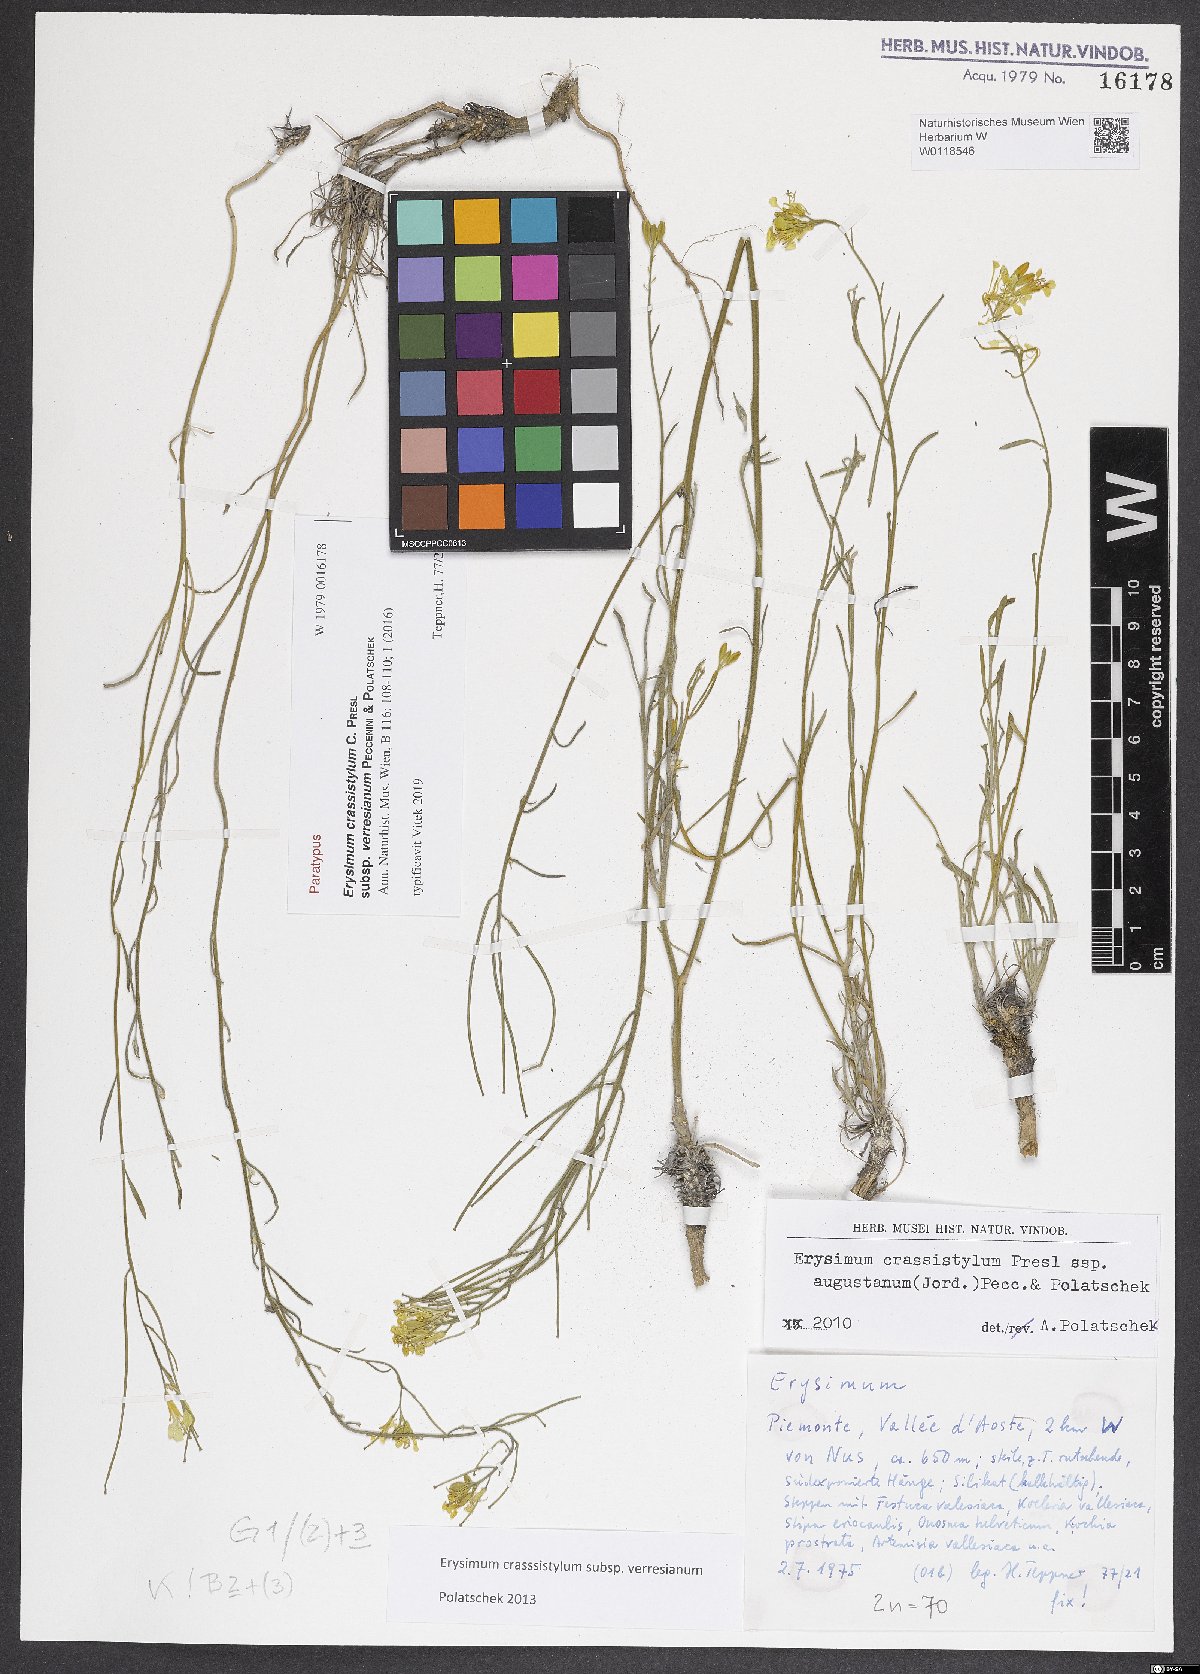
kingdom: Plantae
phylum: Tracheophyta
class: Magnoliopsida
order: Brassicales
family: Brassicaceae
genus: Erysimum
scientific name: Erysimum crassistylum
